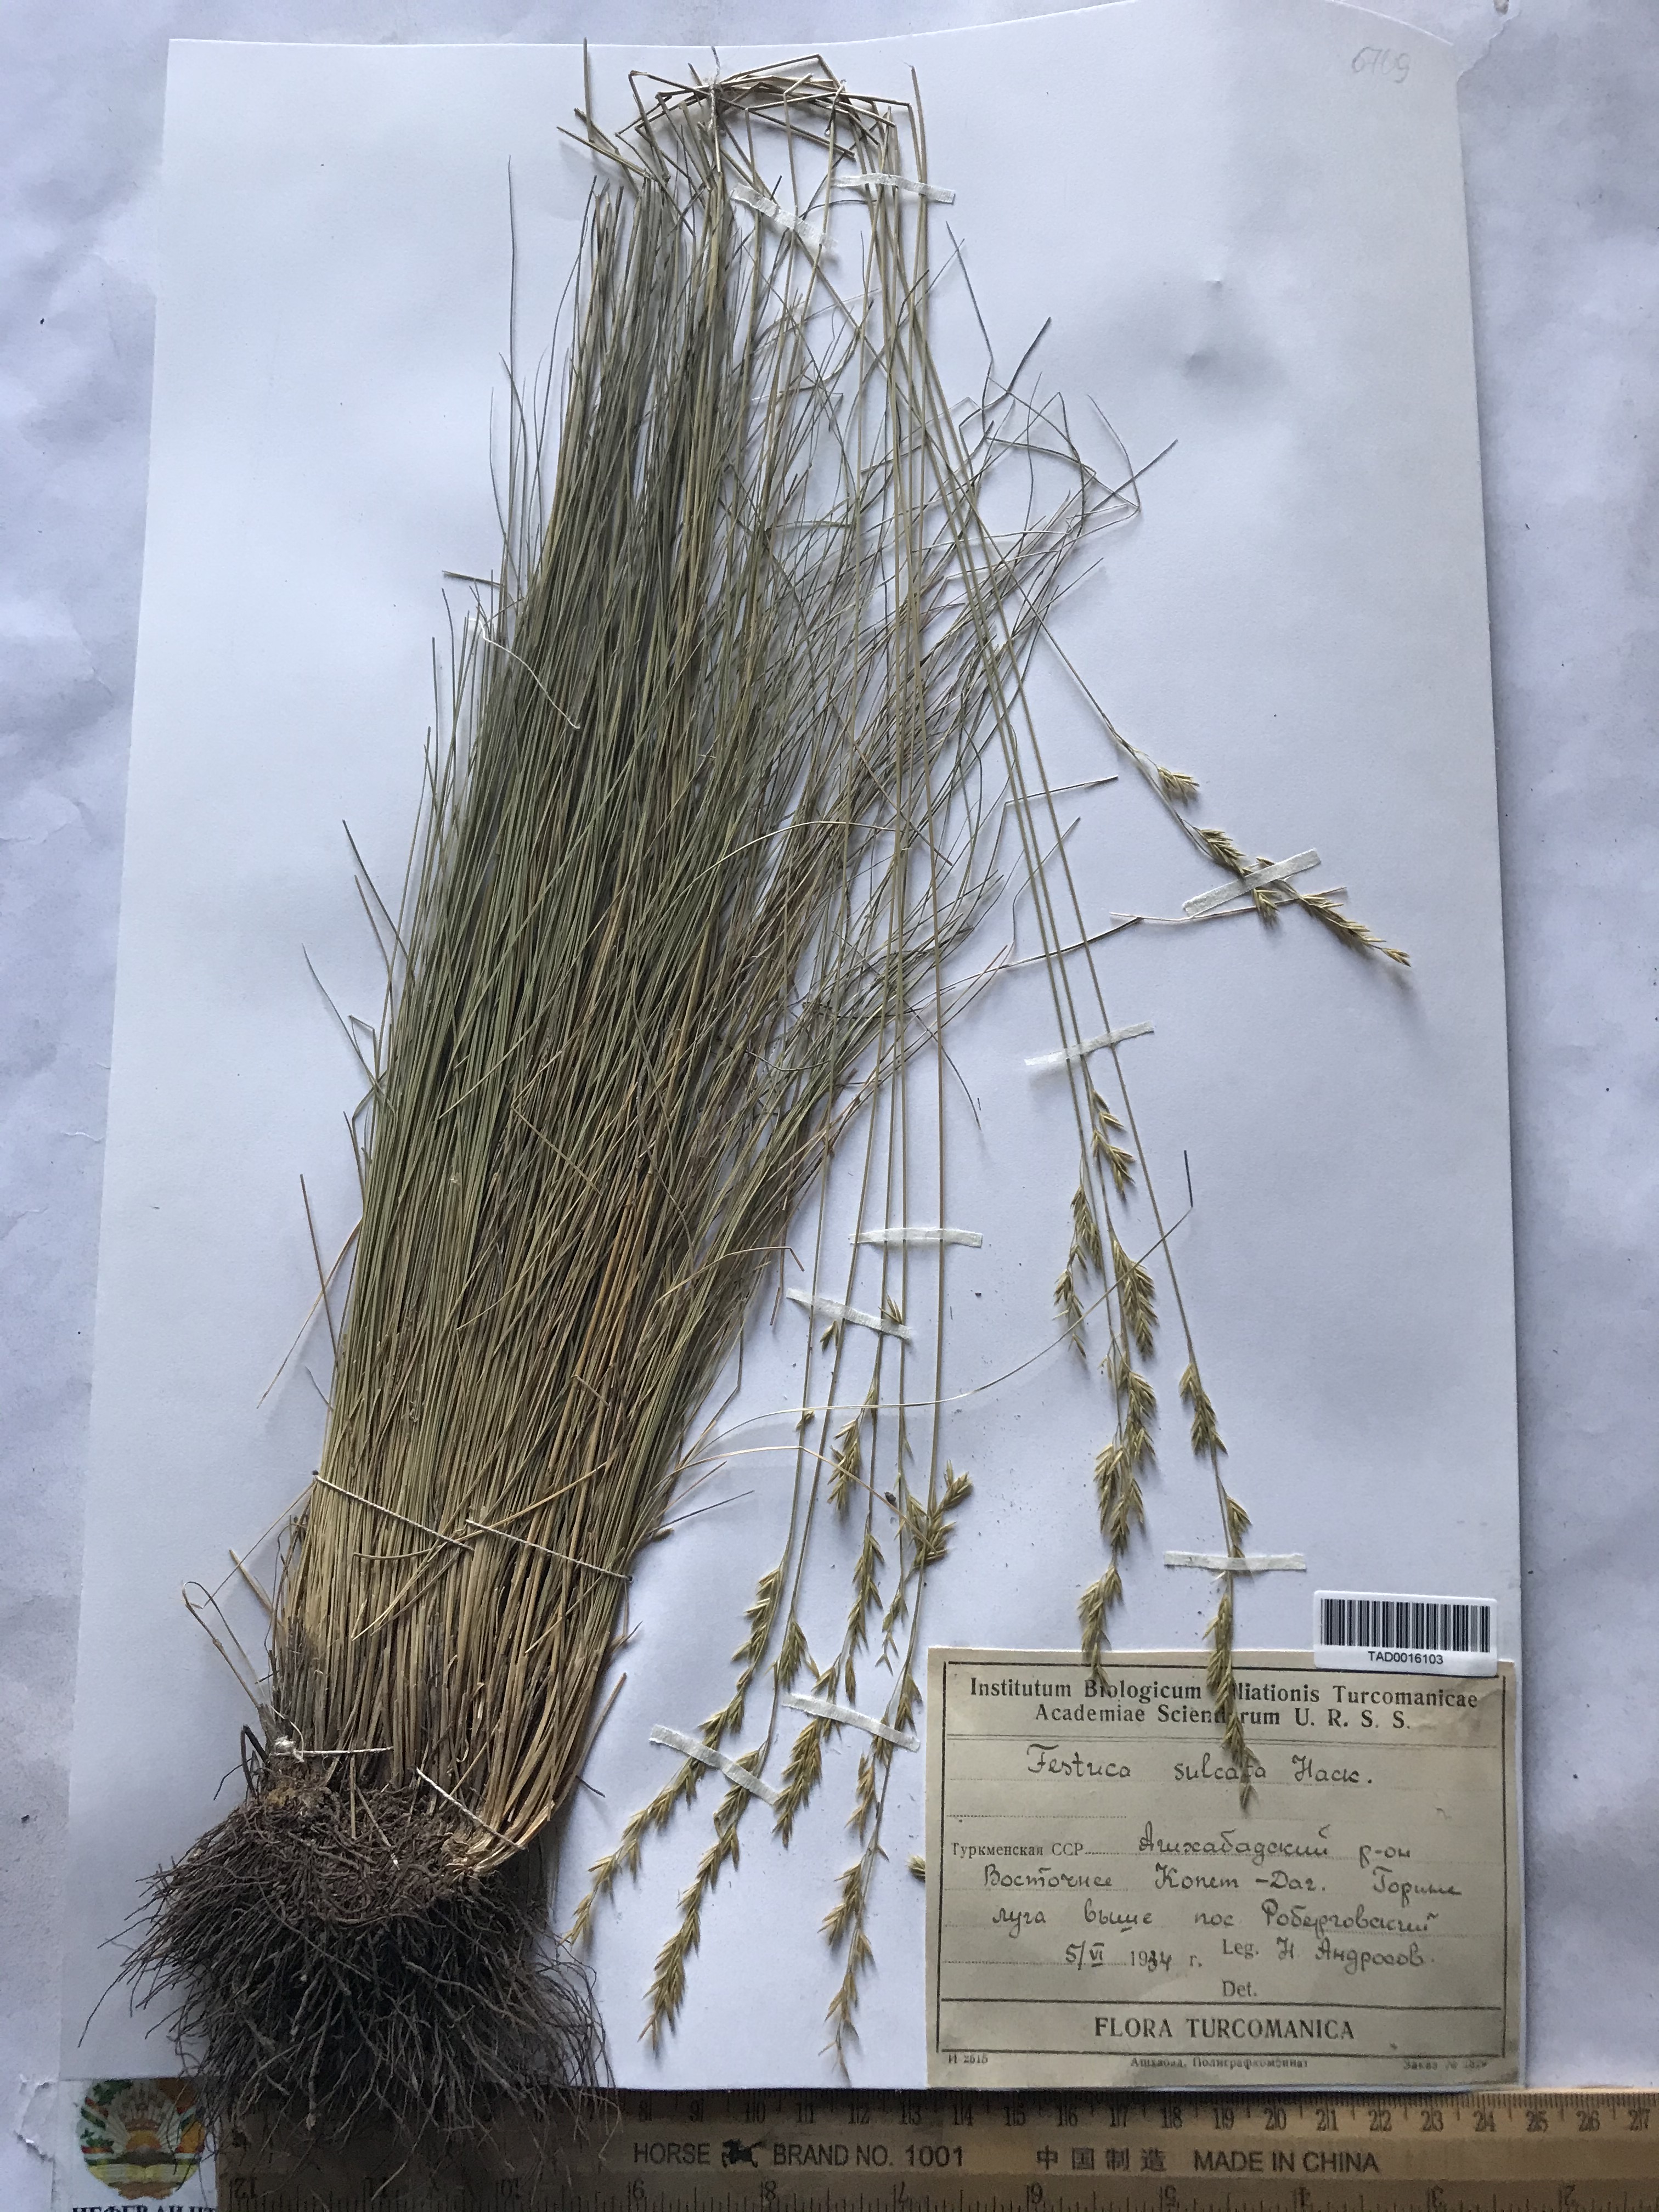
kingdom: Plantae
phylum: Tracheophyta
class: Liliopsida
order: Poales
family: Poaceae
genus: Festuca
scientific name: Festuca sulcata
